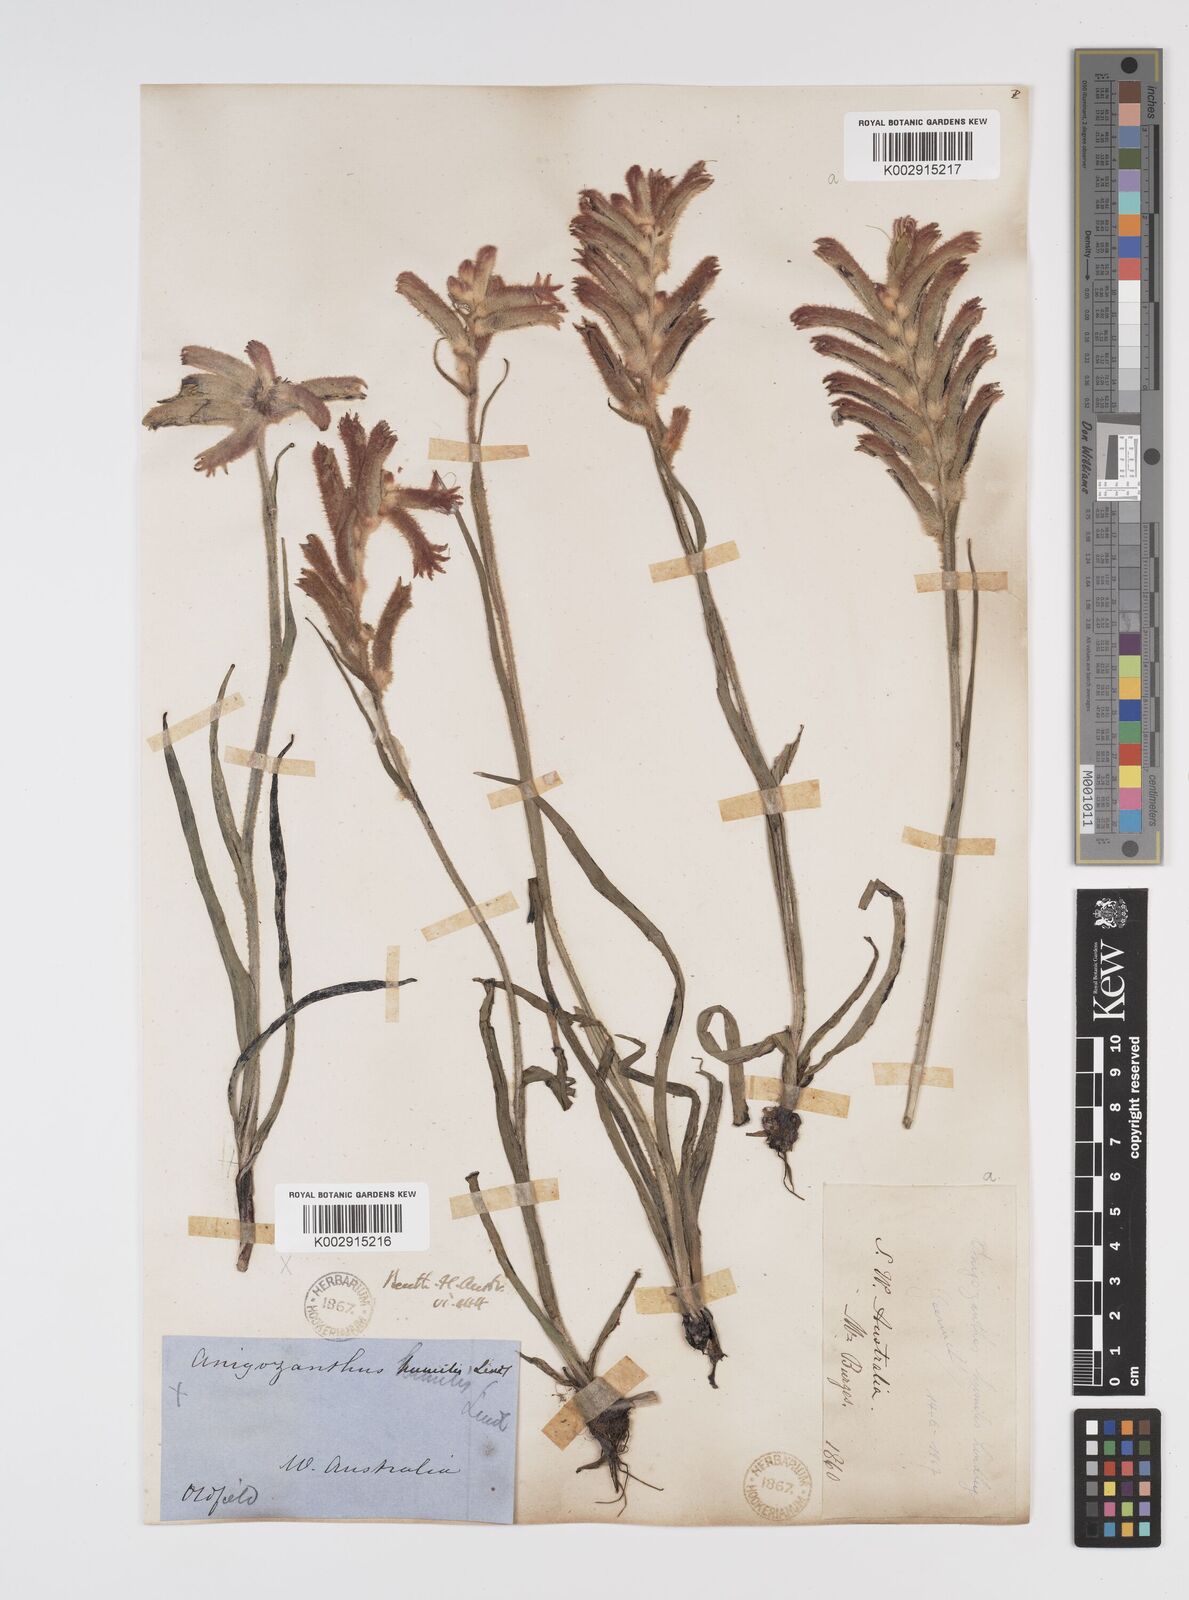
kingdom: Plantae
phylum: Tracheophyta
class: Liliopsida
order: Commelinales
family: Haemodoraceae
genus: Anigozanthos
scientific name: Anigozanthos humilis
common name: Cat's-paw
